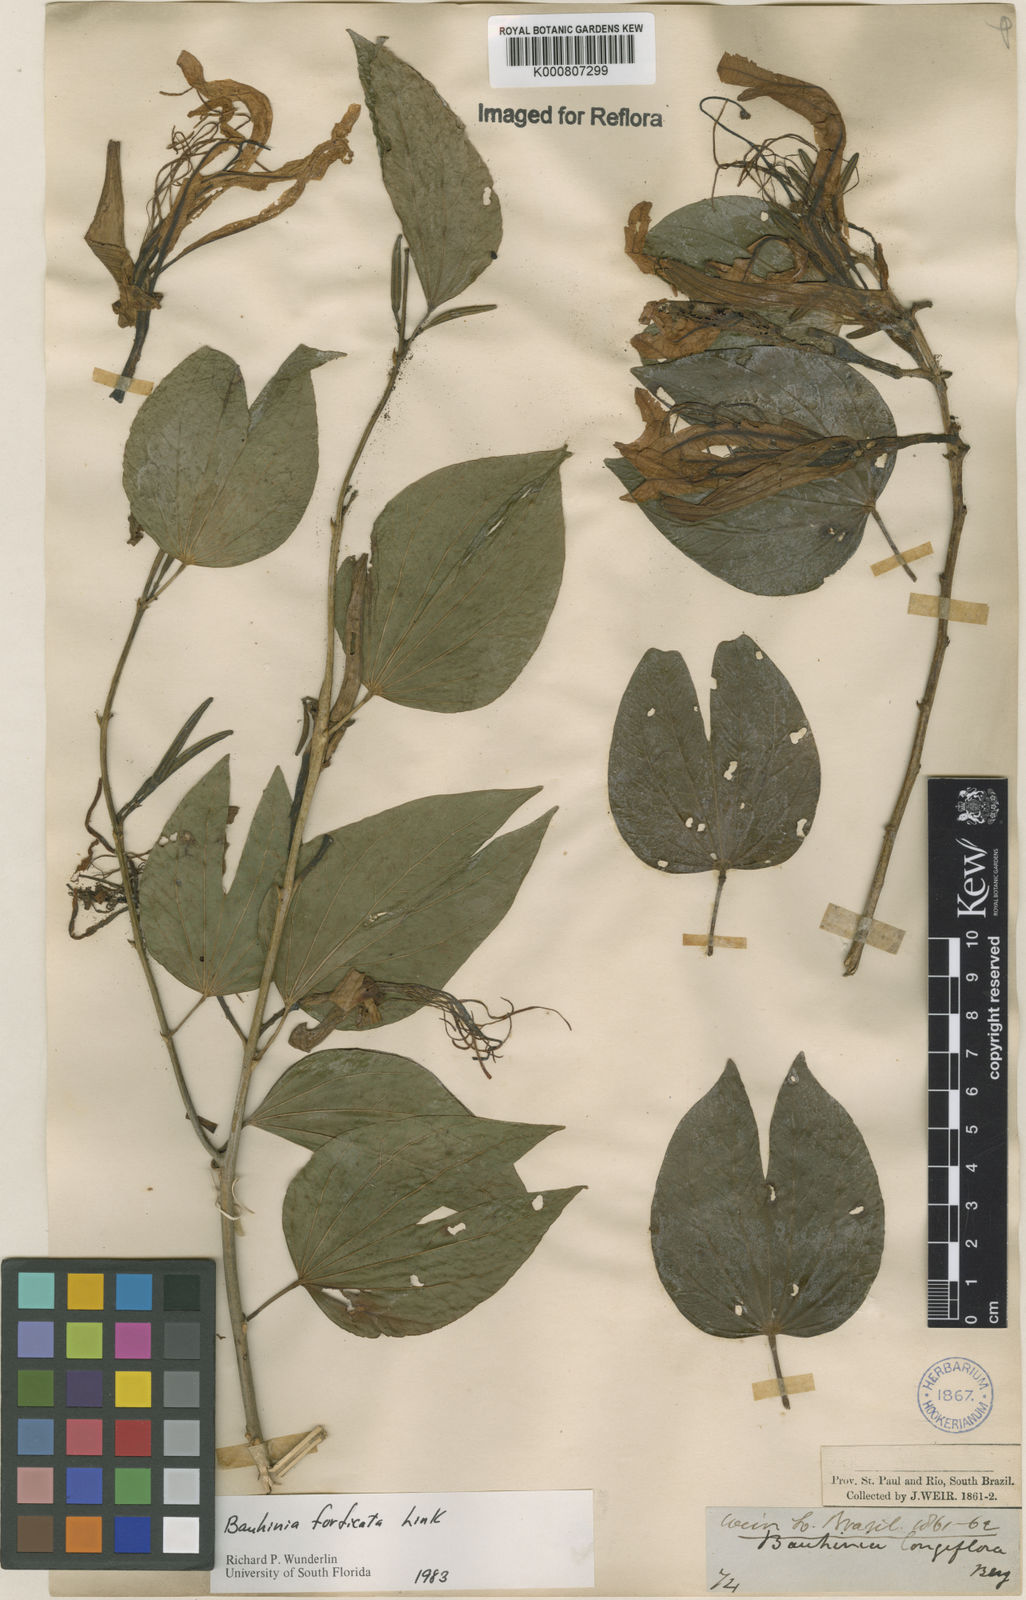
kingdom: Plantae
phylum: Tracheophyta
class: Magnoliopsida
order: Fabales
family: Fabaceae
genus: Bauhinia
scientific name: Bauhinia forficata
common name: Orchid tree
